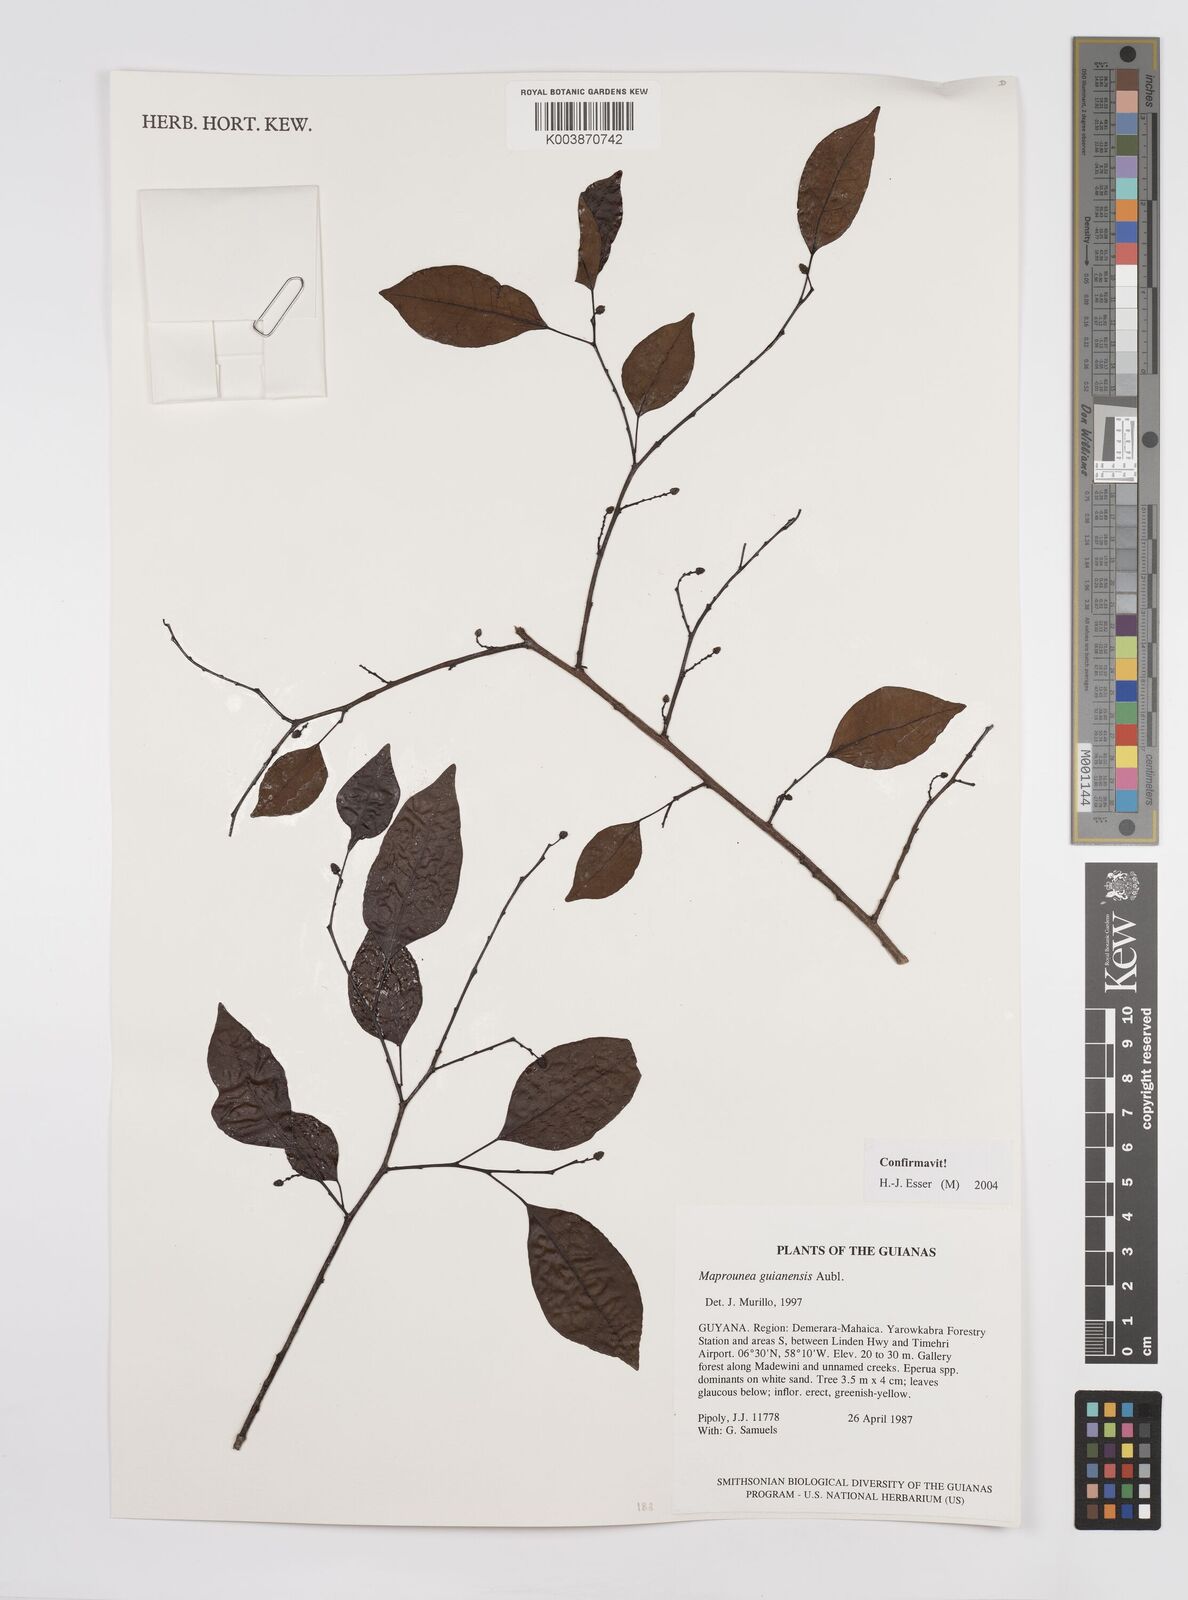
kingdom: Plantae
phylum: Tracheophyta
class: Magnoliopsida
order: Malpighiales
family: Euphorbiaceae
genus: Maprounea
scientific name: Maprounea guianensis
